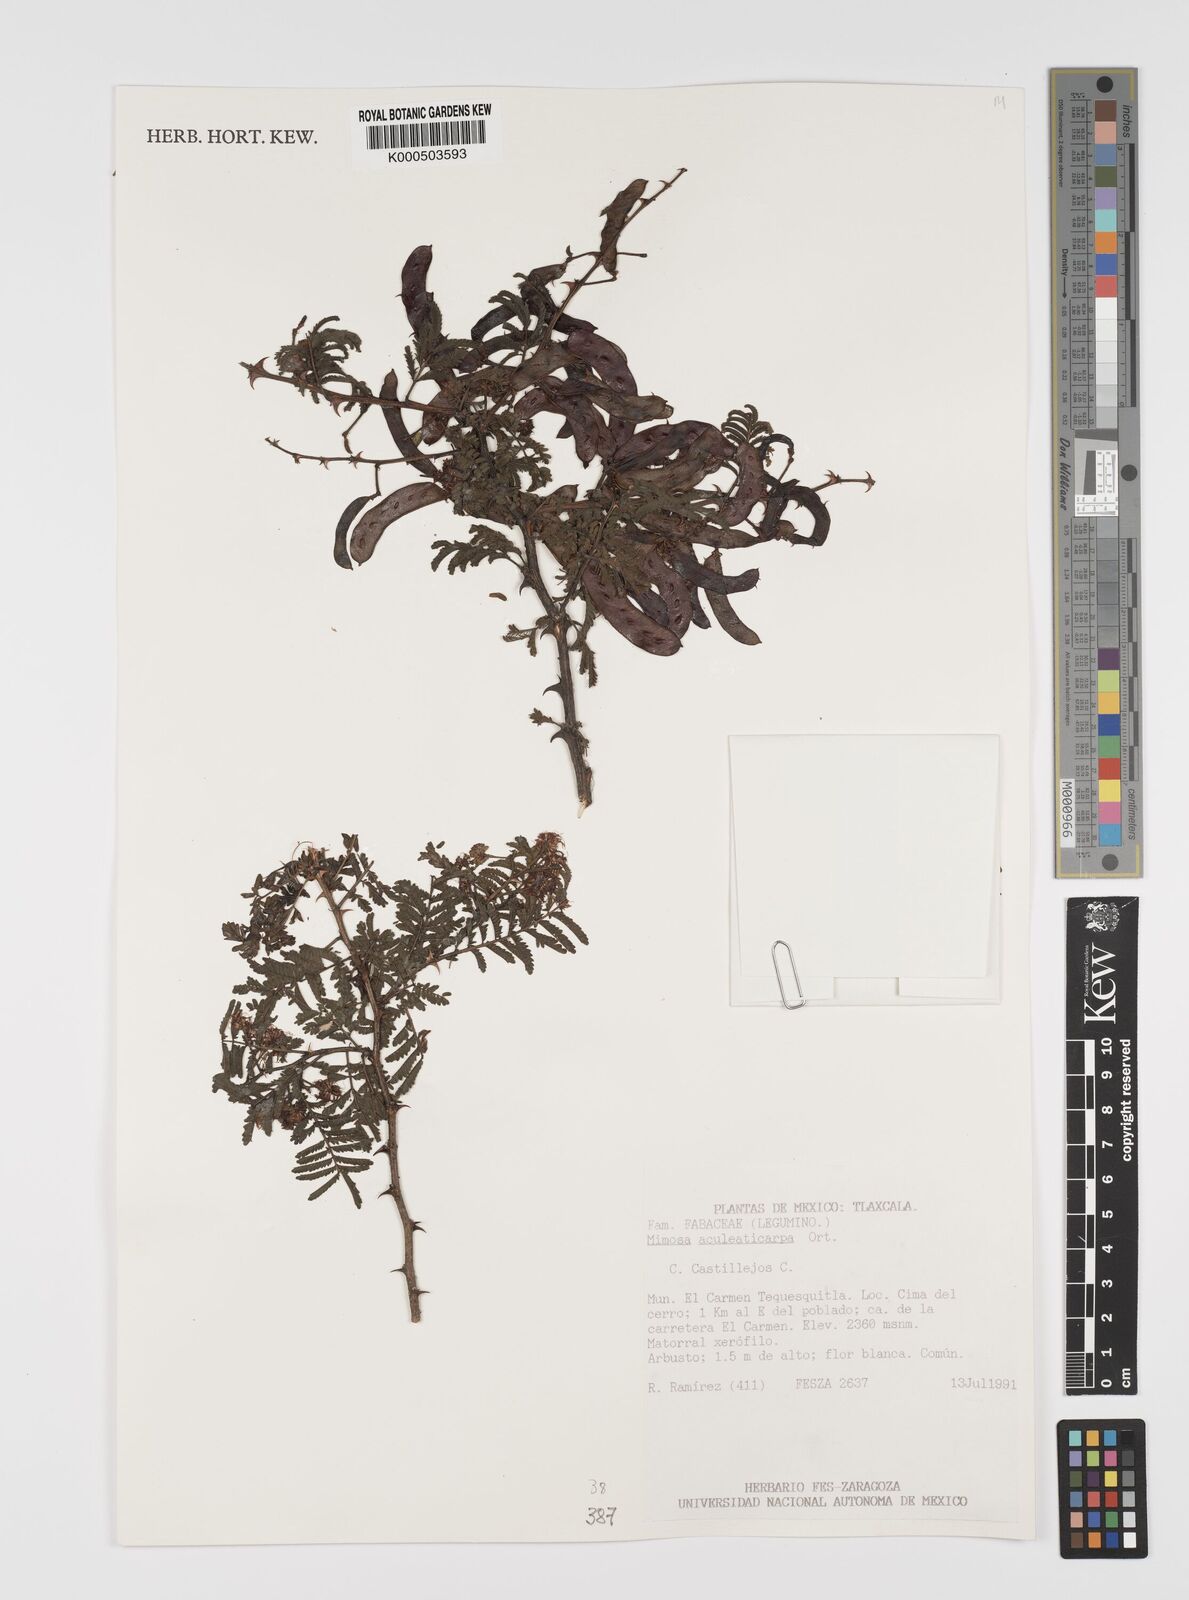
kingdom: Plantae
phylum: Tracheophyta
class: Magnoliopsida
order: Fabales
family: Fabaceae
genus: Mimosa
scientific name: Mimosa aculeaticarpa
